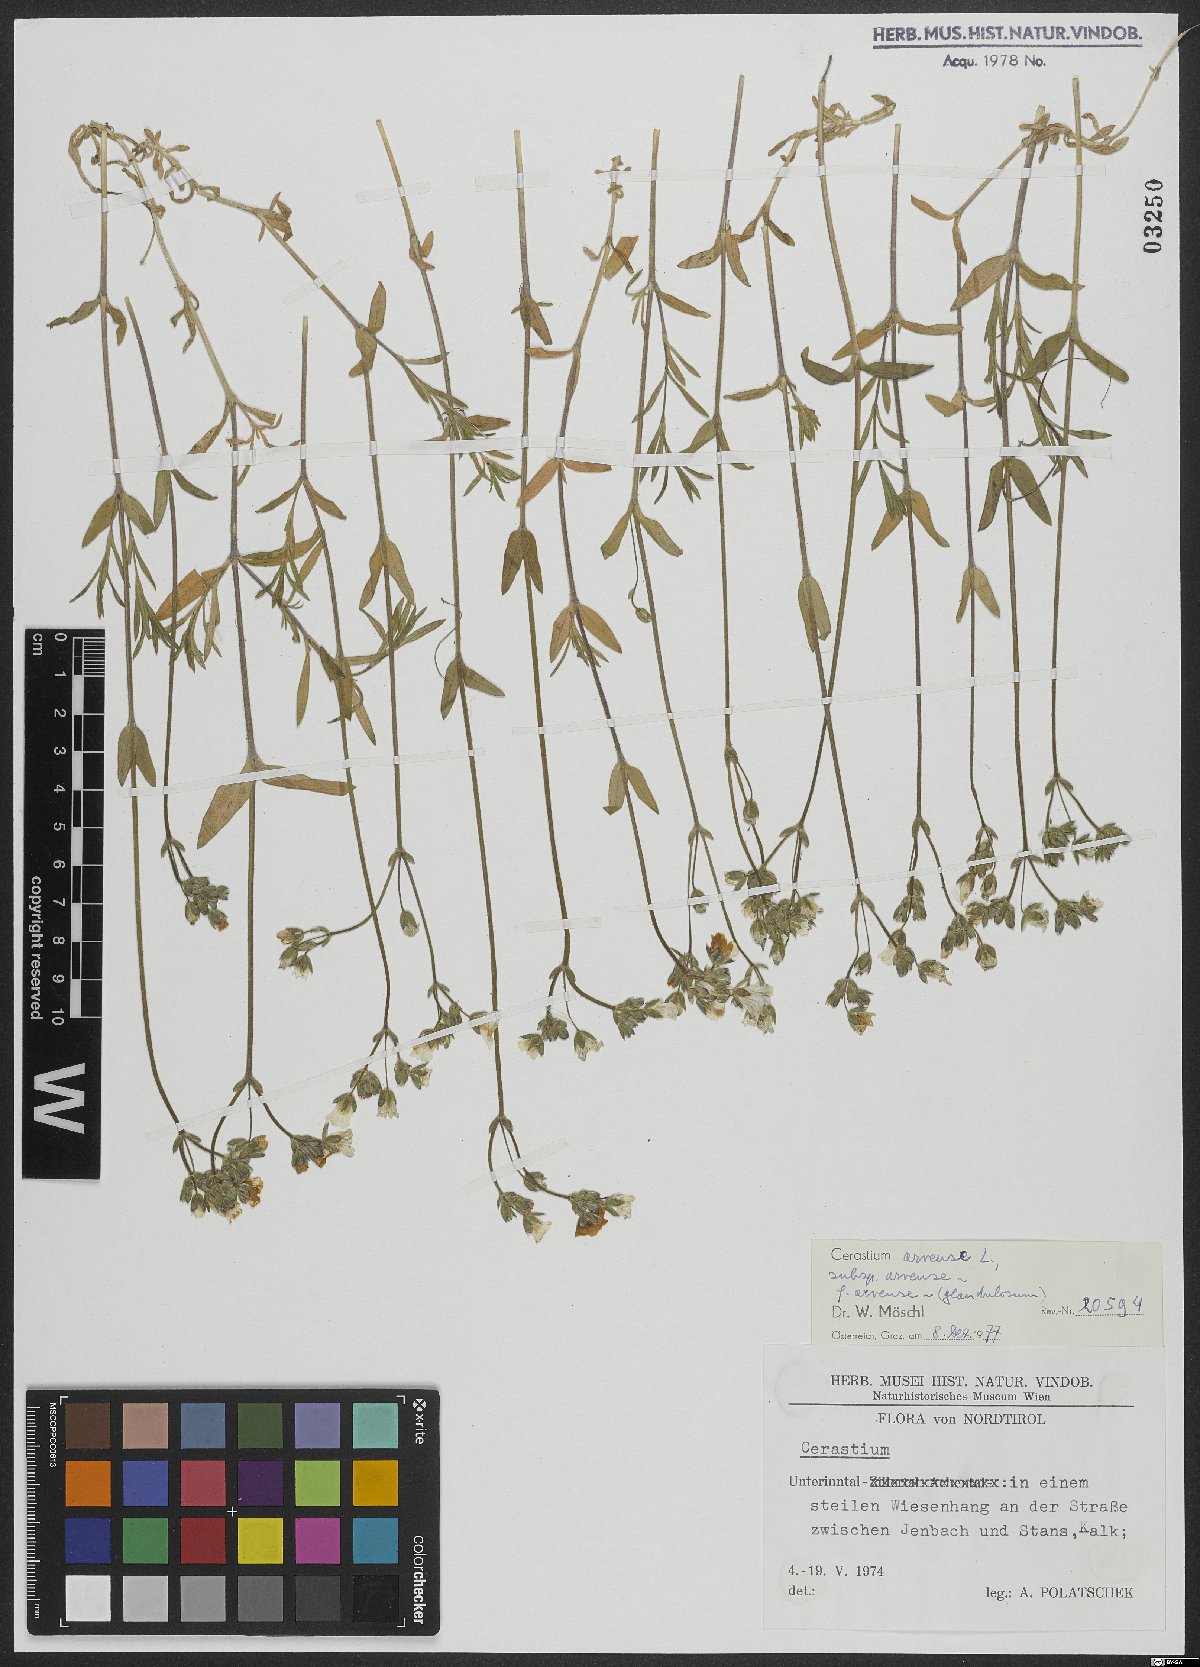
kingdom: Plantae
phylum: Tracheophyta
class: Magnoliopsida
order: Caryophyllales
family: Caryophyllaceae
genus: Cerastium
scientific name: Cerastium arvense
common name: Field mouse-ear
